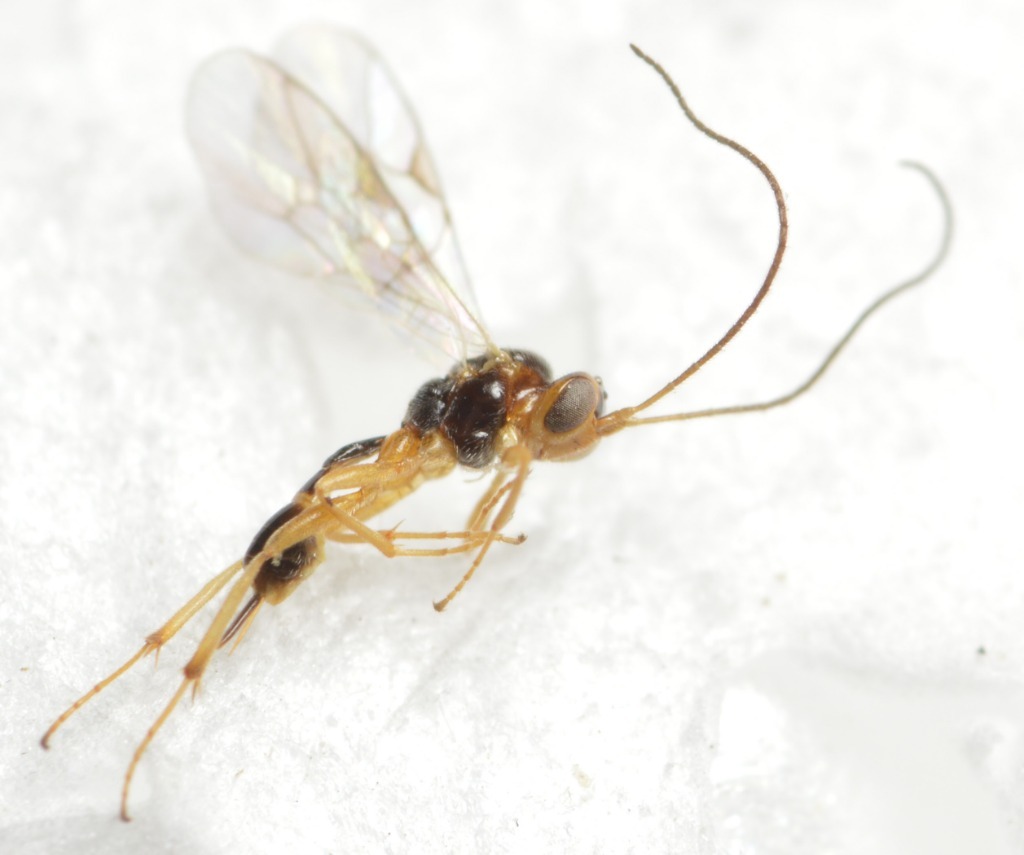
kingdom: Animalia
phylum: Arthropoda
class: Insecta
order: Hymenoptera
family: Ichneumonidae
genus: Mesochorus
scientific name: Mesochorus curvulus
